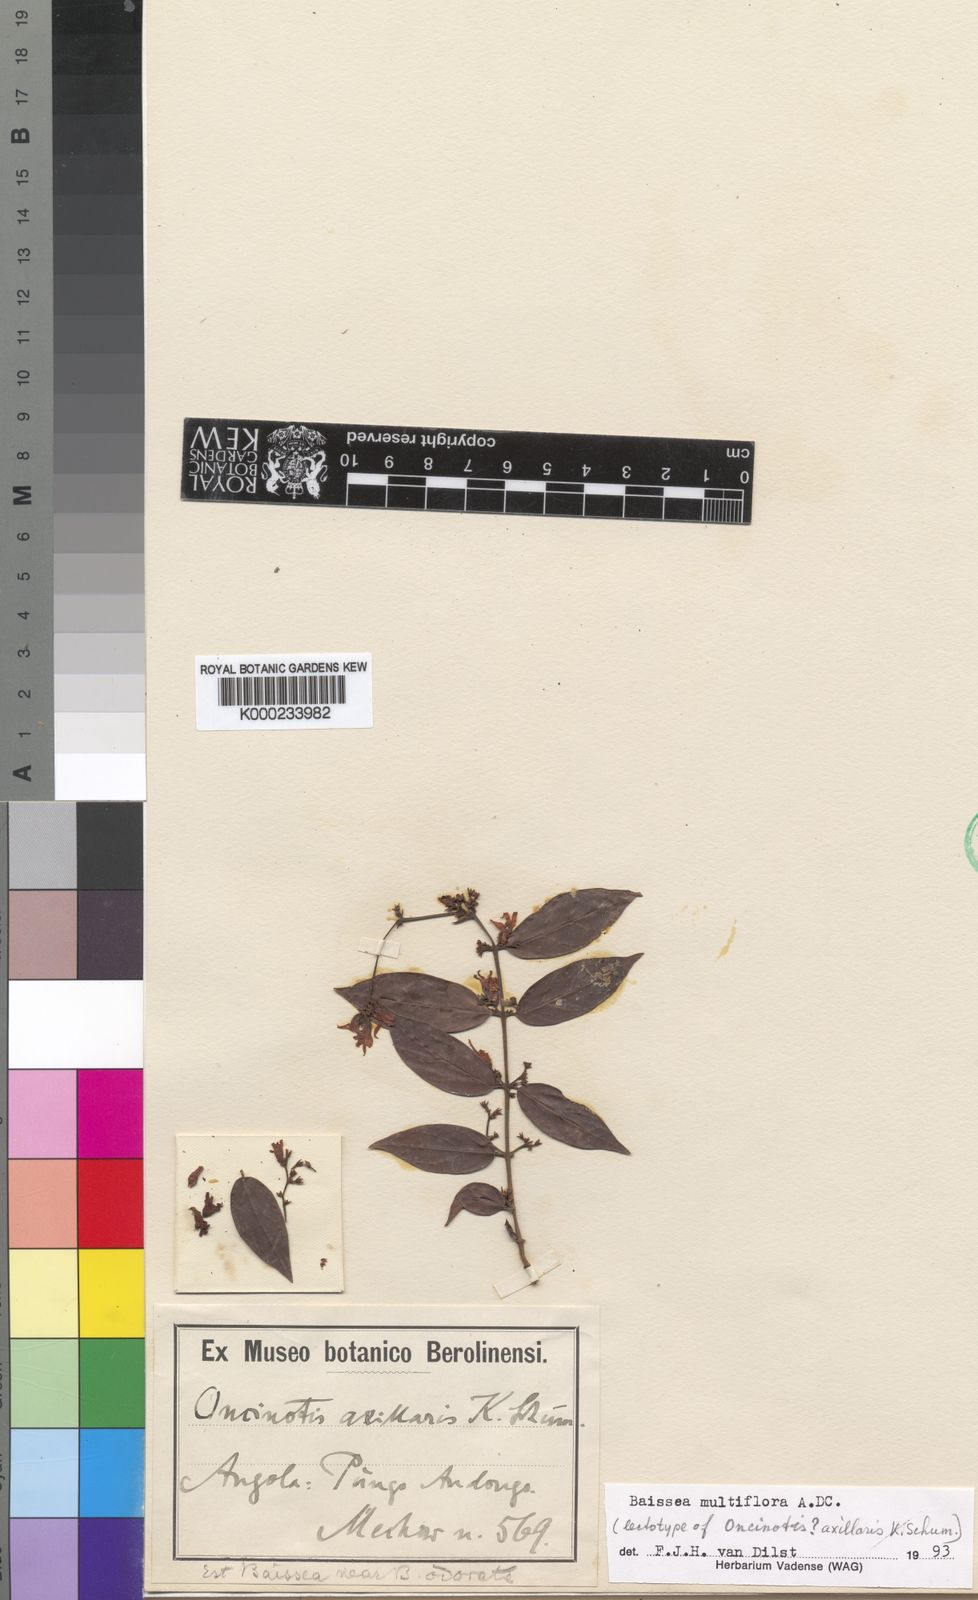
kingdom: Plantae
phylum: Tracheophyta
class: Magnoliopsida
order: Gentianales
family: Apocynaceae
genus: Baissea
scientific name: Baissea multiflora
